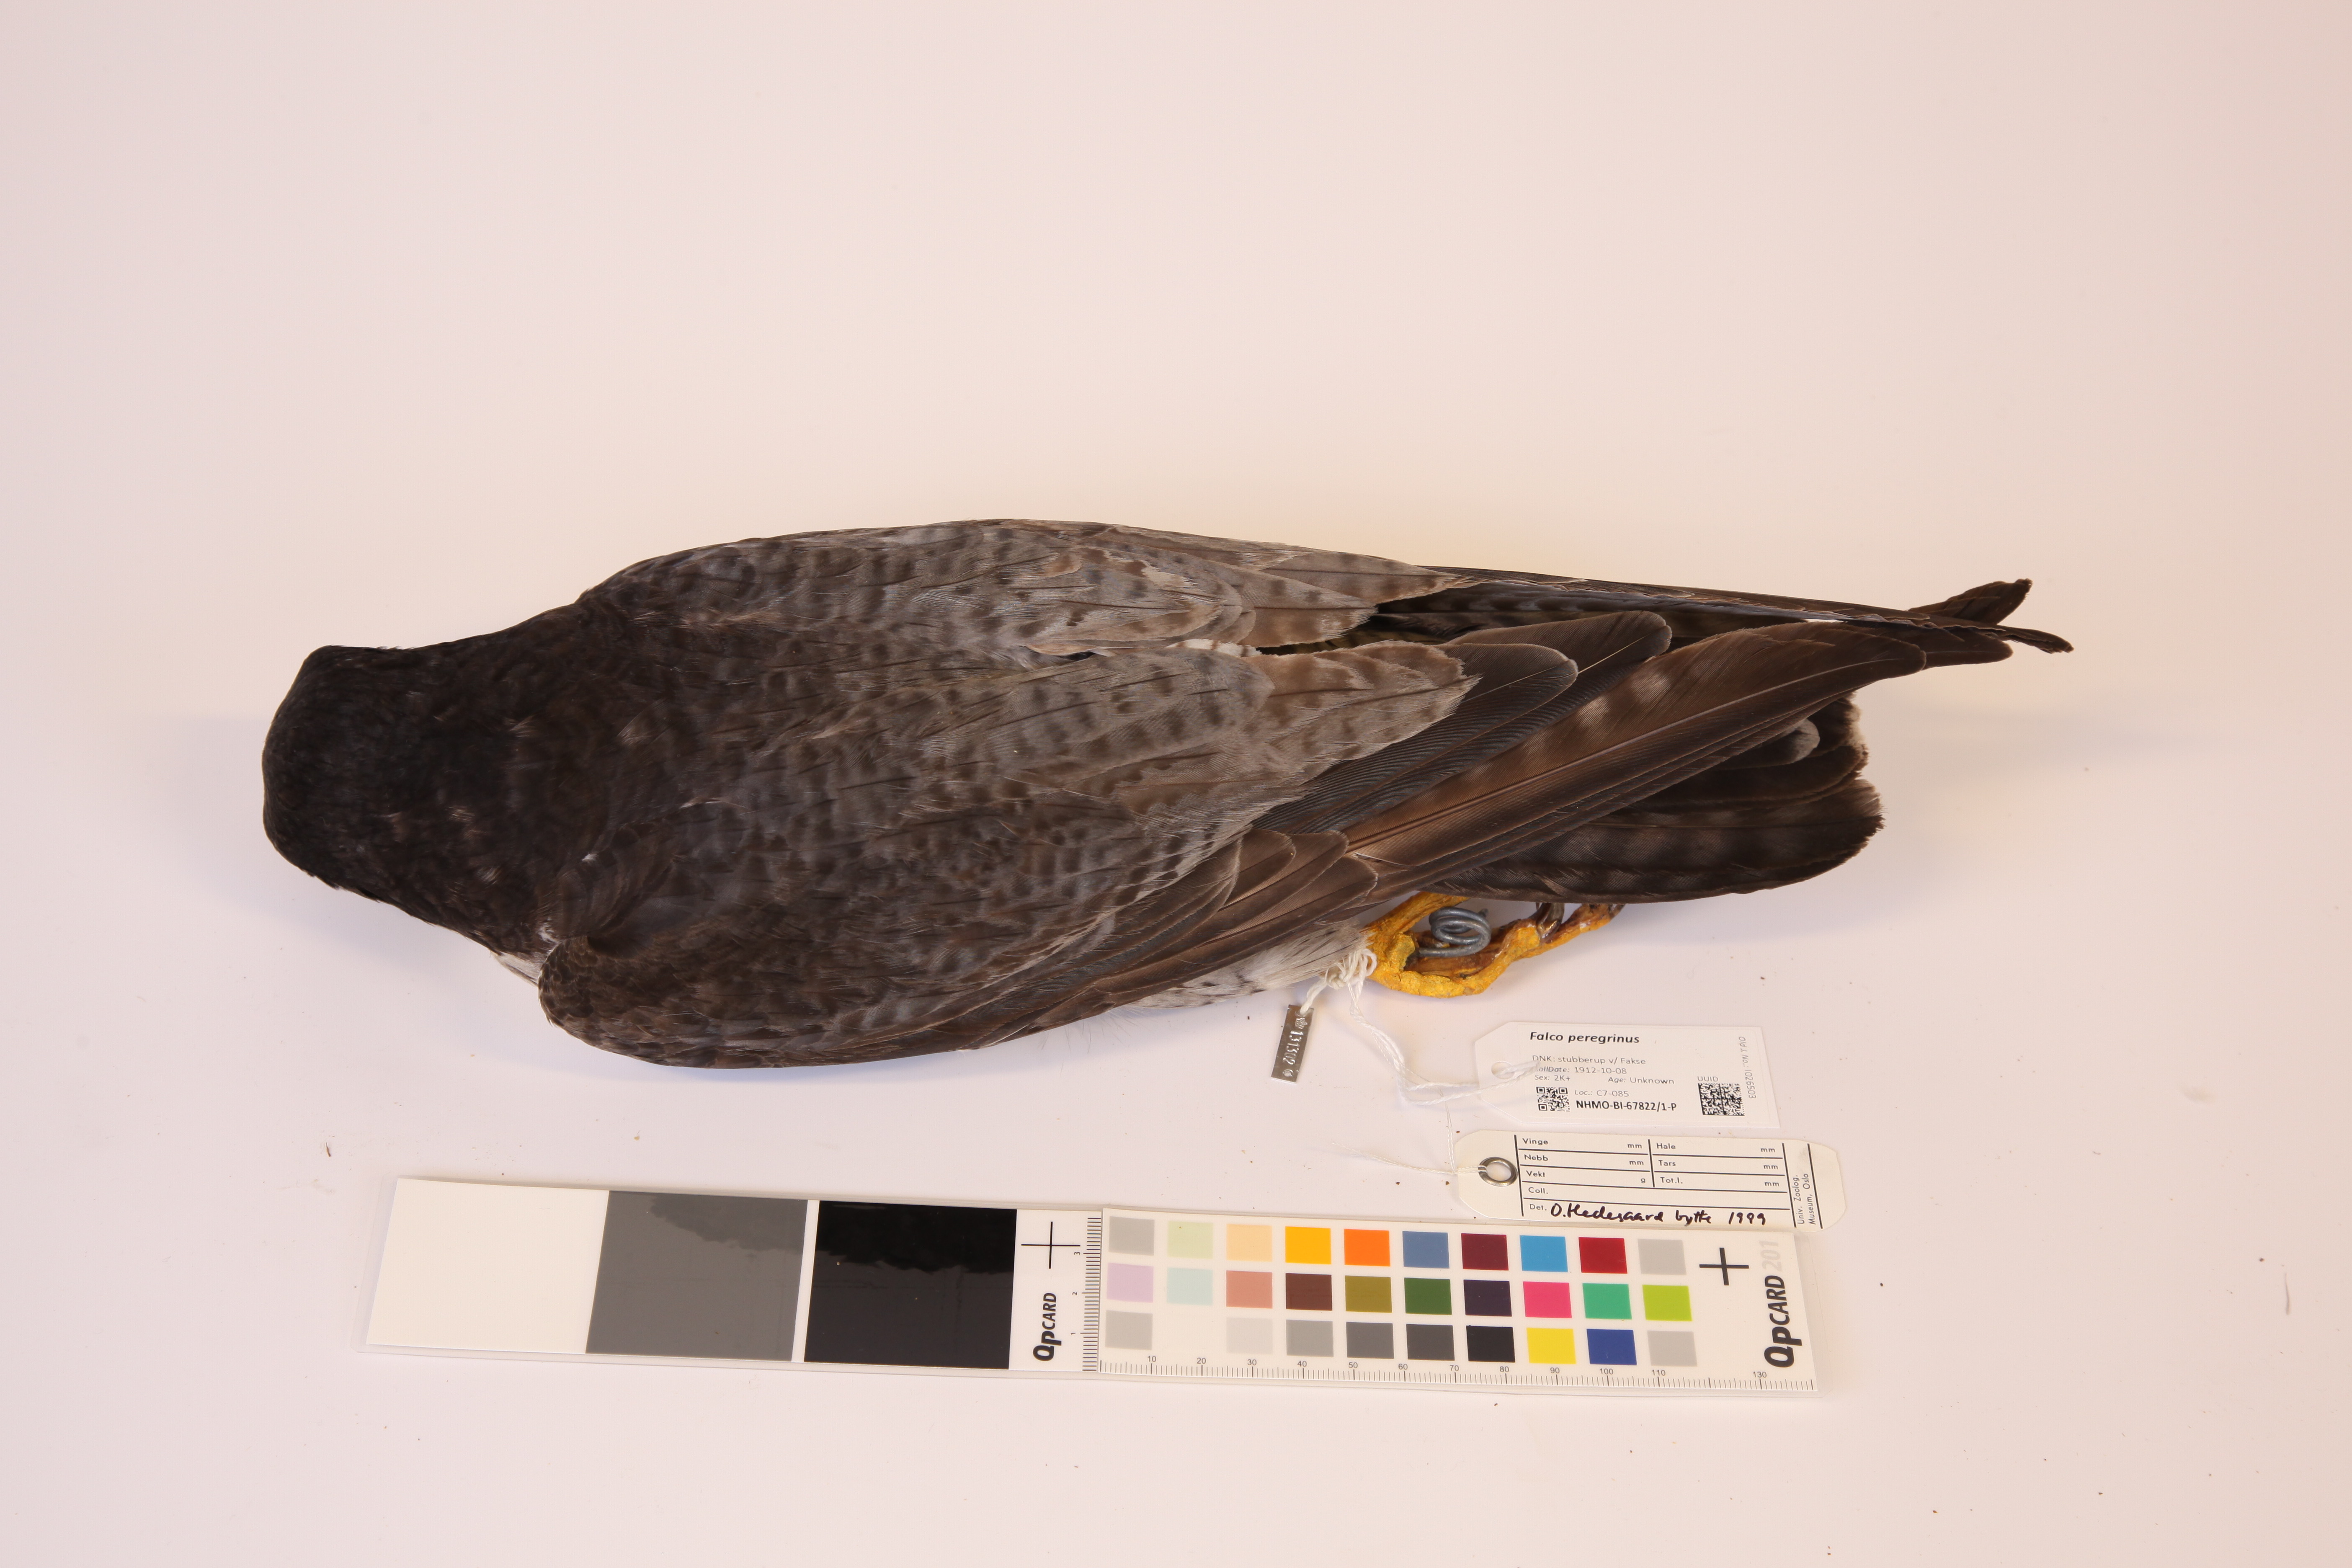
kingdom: Animalia
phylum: Chordata
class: Aves
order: Falconiformes
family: Falconidae
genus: Falco
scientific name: Falco peregrinus
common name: Peregrine falcon
